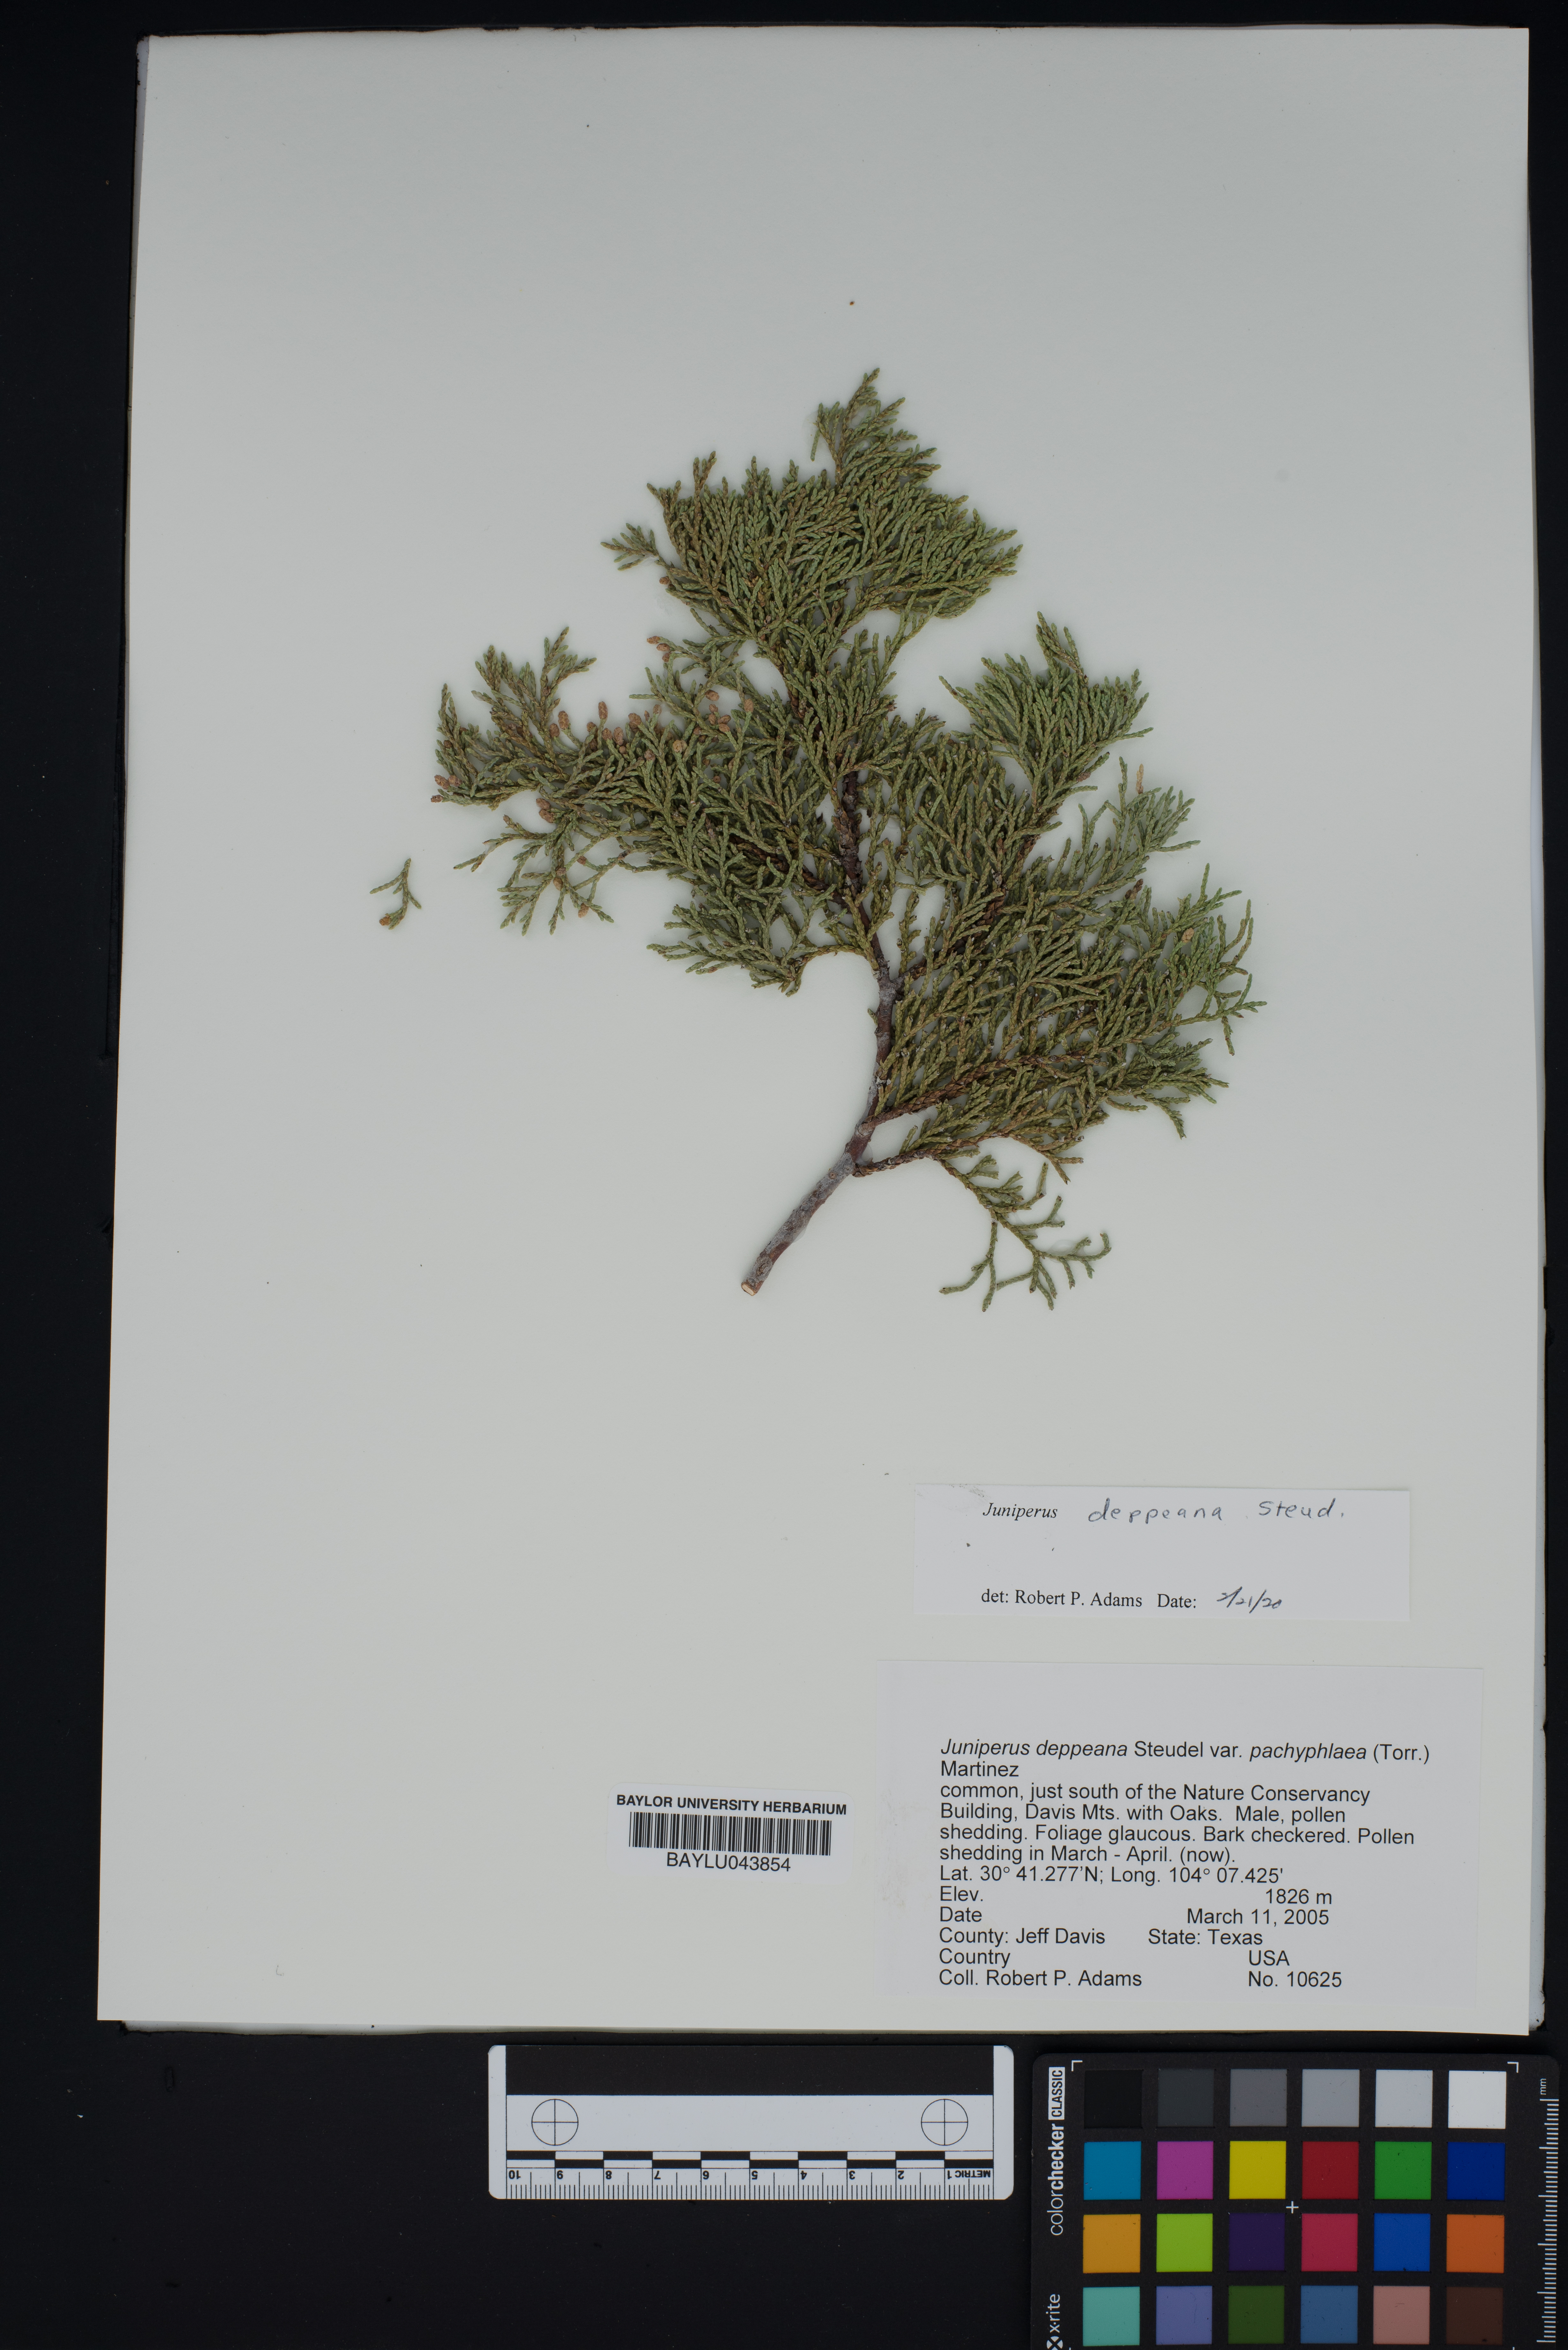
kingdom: Plantae
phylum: Tracheophyta
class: Pinopsida
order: Pinales
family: Cupressaceae
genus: Juniperus
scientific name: Juniperus deppeana
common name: Alligator juniper
